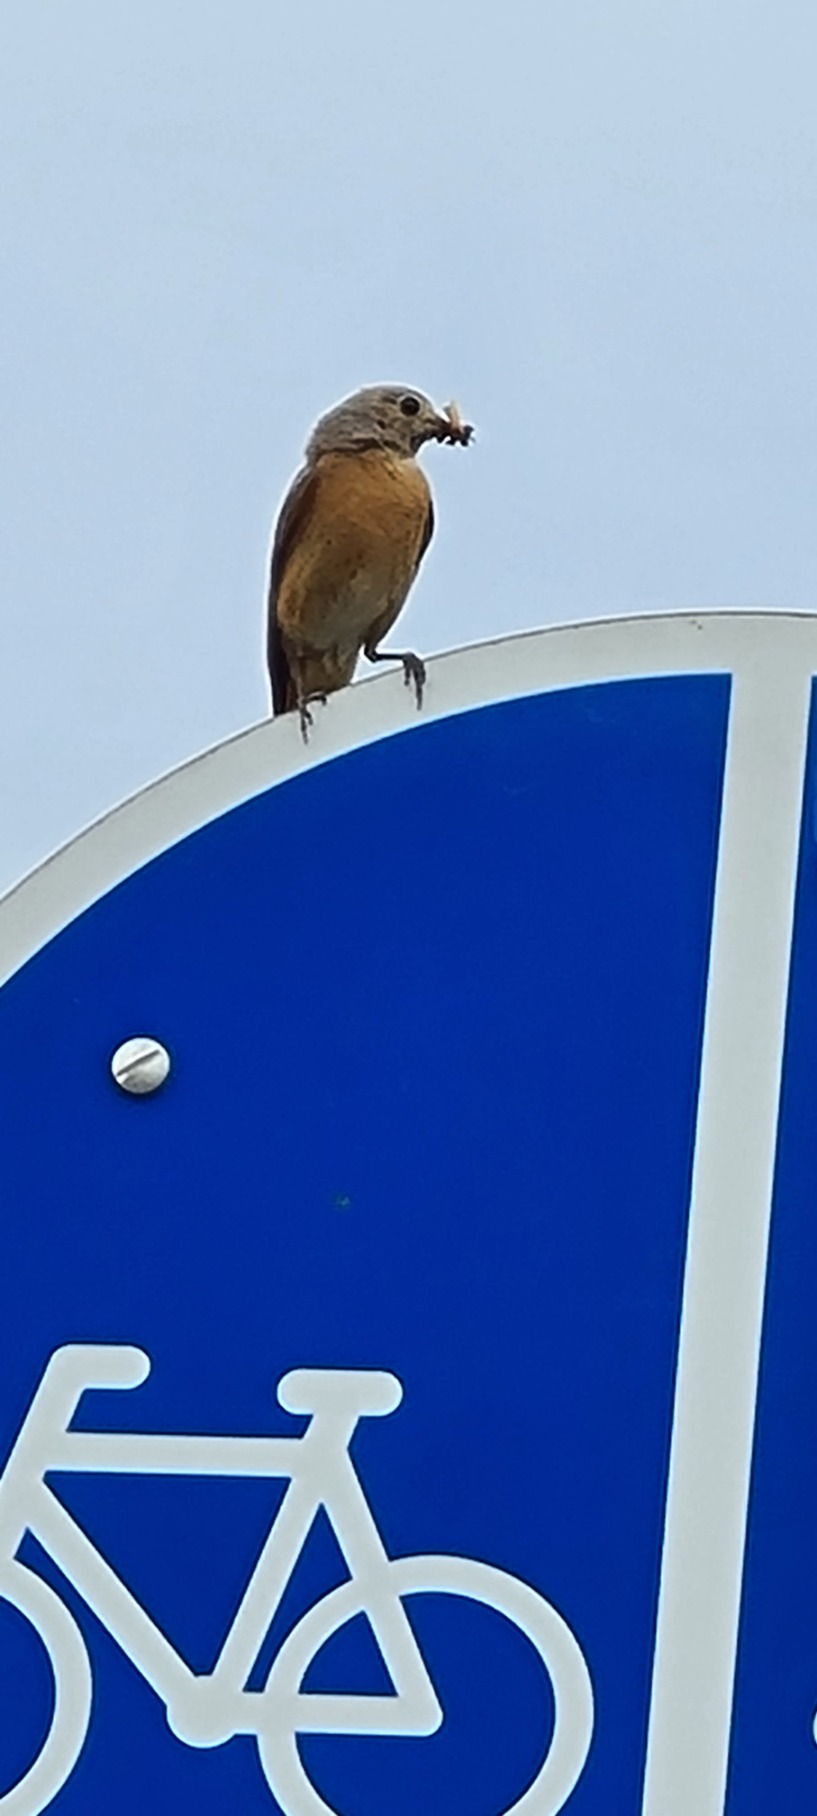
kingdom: Animalia
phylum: Chordata
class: Aves
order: Passeriformes
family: Muscicapidae
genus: Phoenicurus
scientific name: Phoenicurus phoenicurus
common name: Rødstjert
